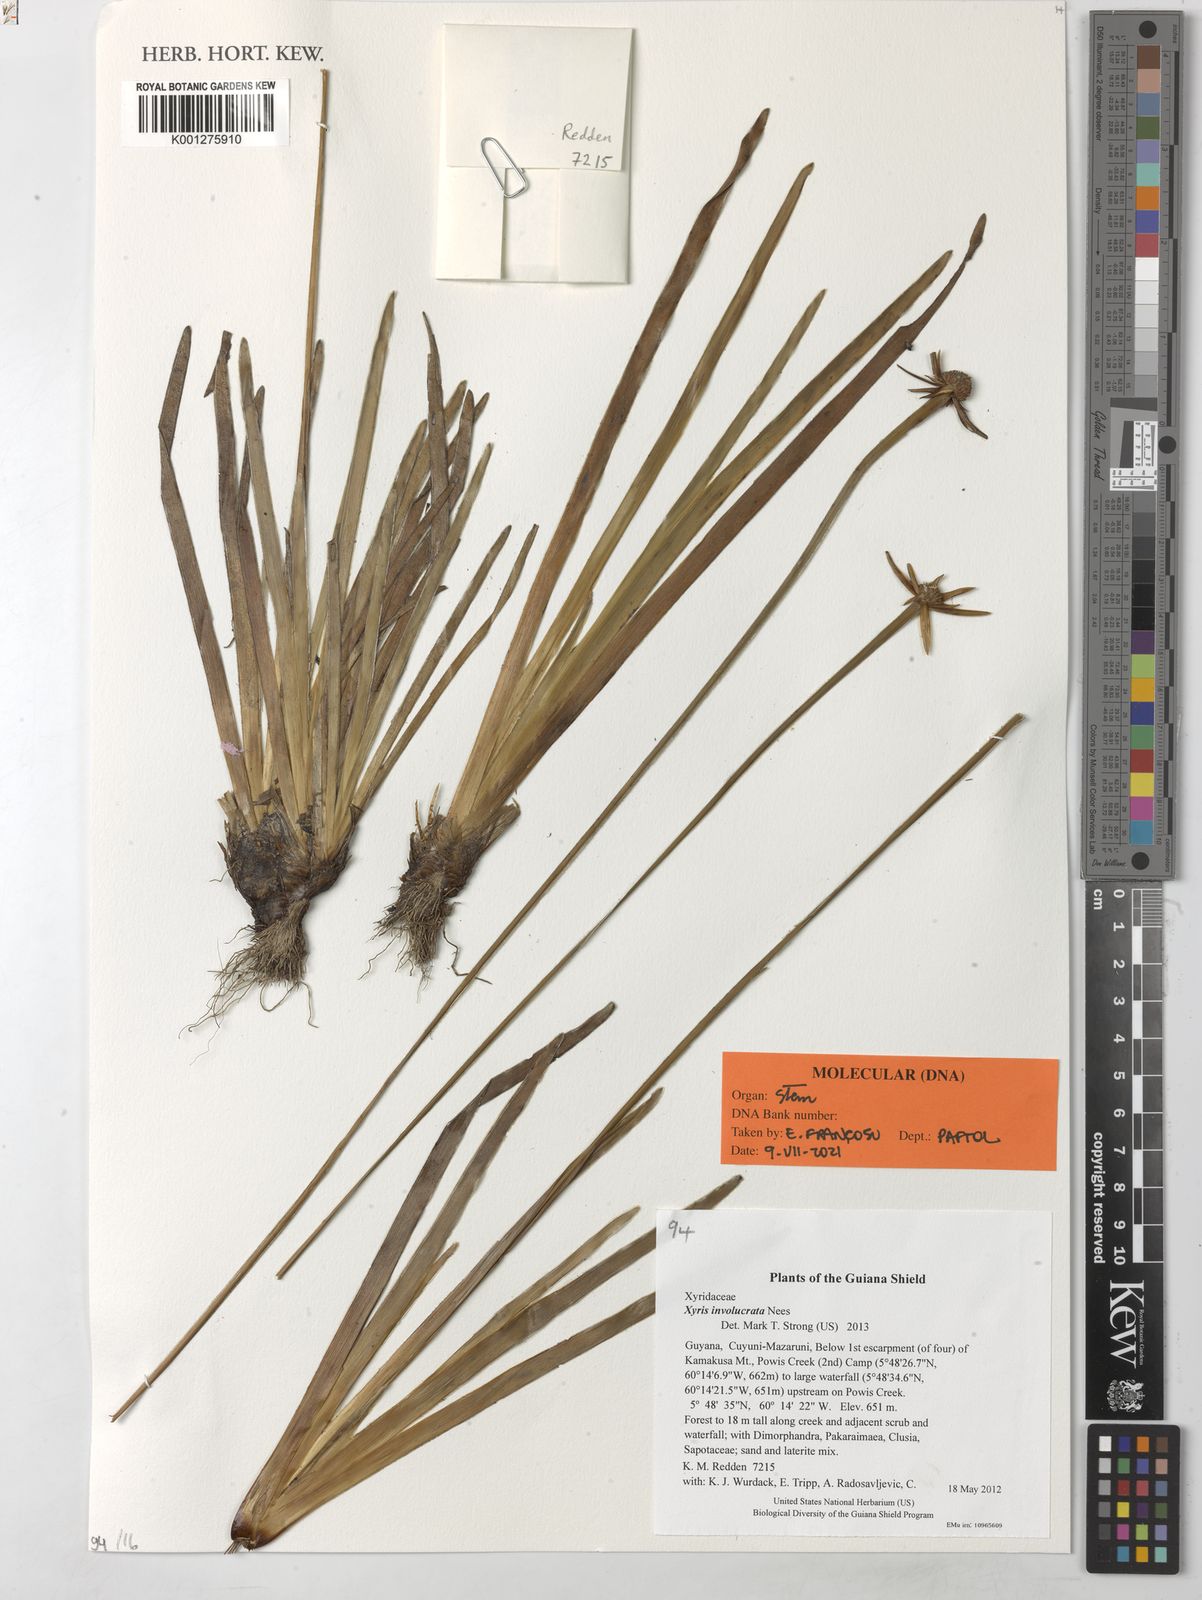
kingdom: Plantae
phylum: Tracheophyta
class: Liliopsida
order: Poales
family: Xyridaceae
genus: Xyris
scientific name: Xyris involucrata
